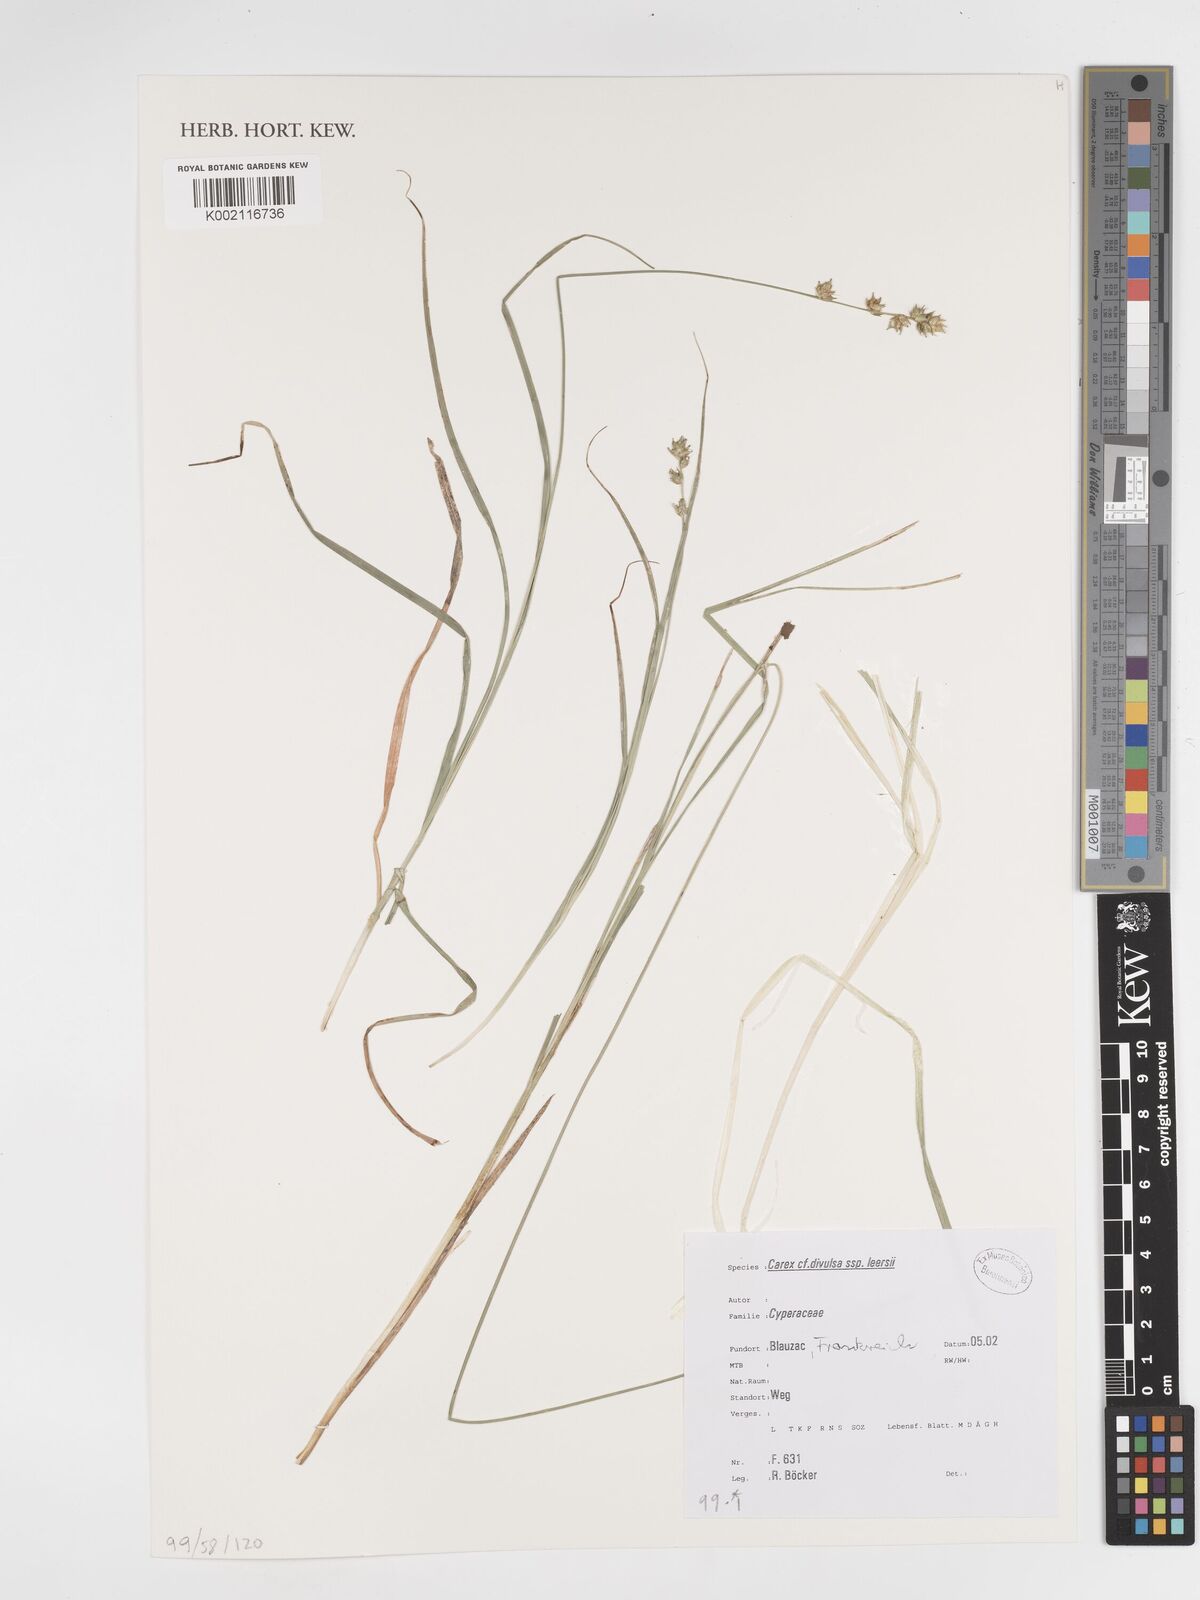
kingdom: Plantae
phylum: Tracheophyta
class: Liliopsida
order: Poales
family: Cyperaceae
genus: Carex
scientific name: Carex divulsa
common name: Grassland sedge
